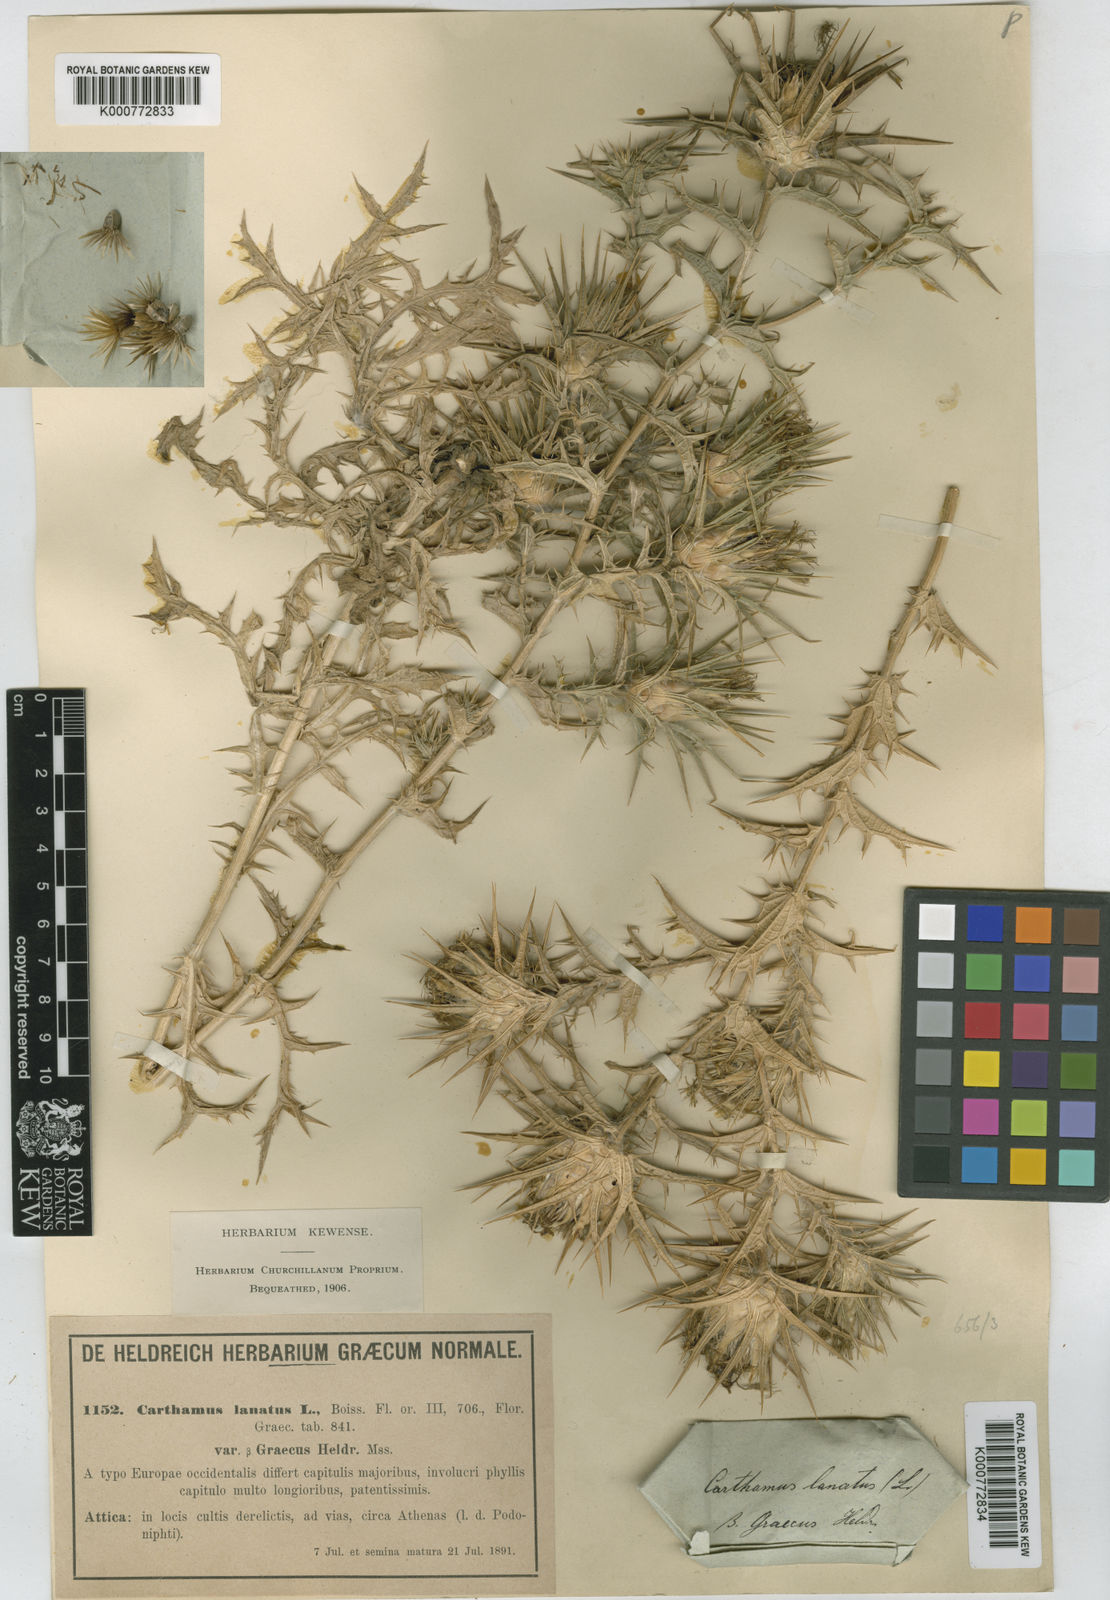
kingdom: Plantae
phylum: Tracheophyta
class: Magnoliopsida
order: Asterales
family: Asteraceae
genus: Carthamus
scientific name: Carthamus lanatus
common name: Downy safflower
